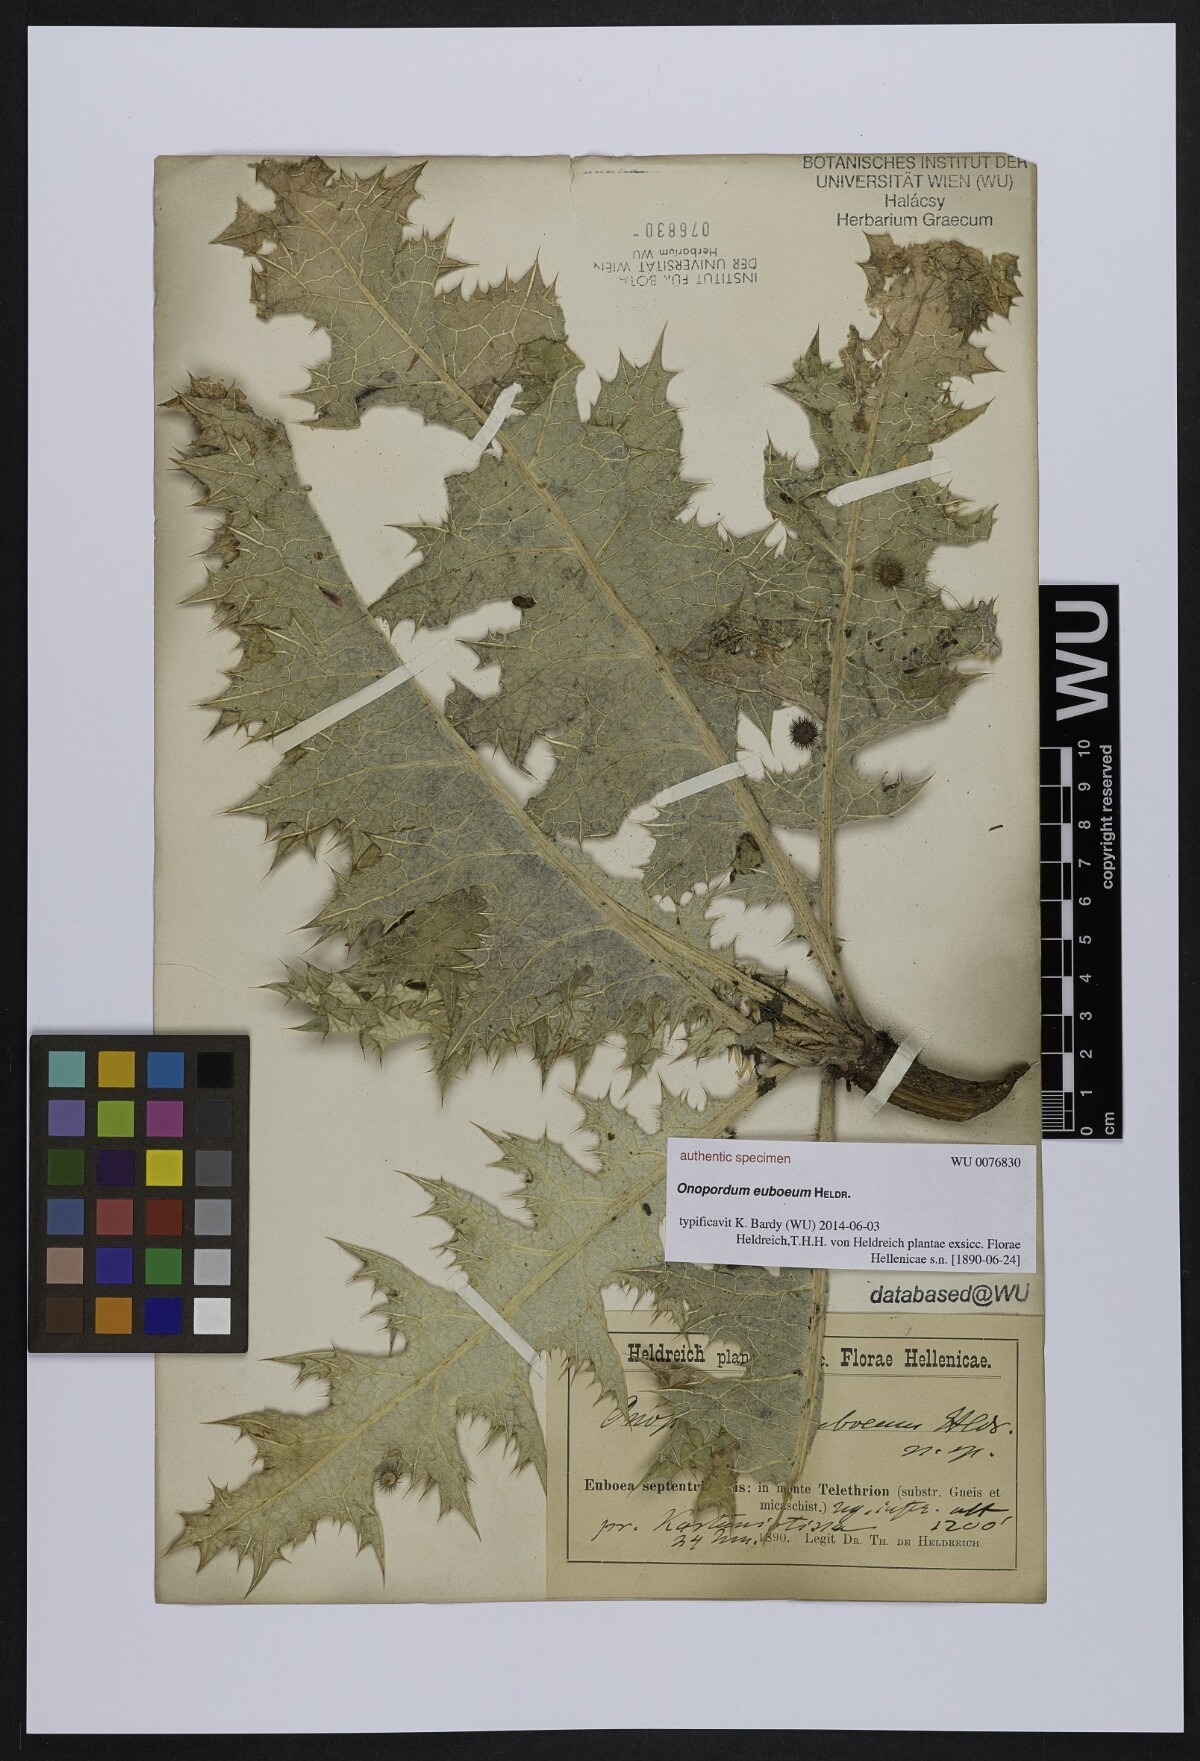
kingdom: Plantae
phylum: Tracheophyta
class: Magnoliopsida
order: Asterales
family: Asteraceae
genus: Onopordum
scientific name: Onopordum
